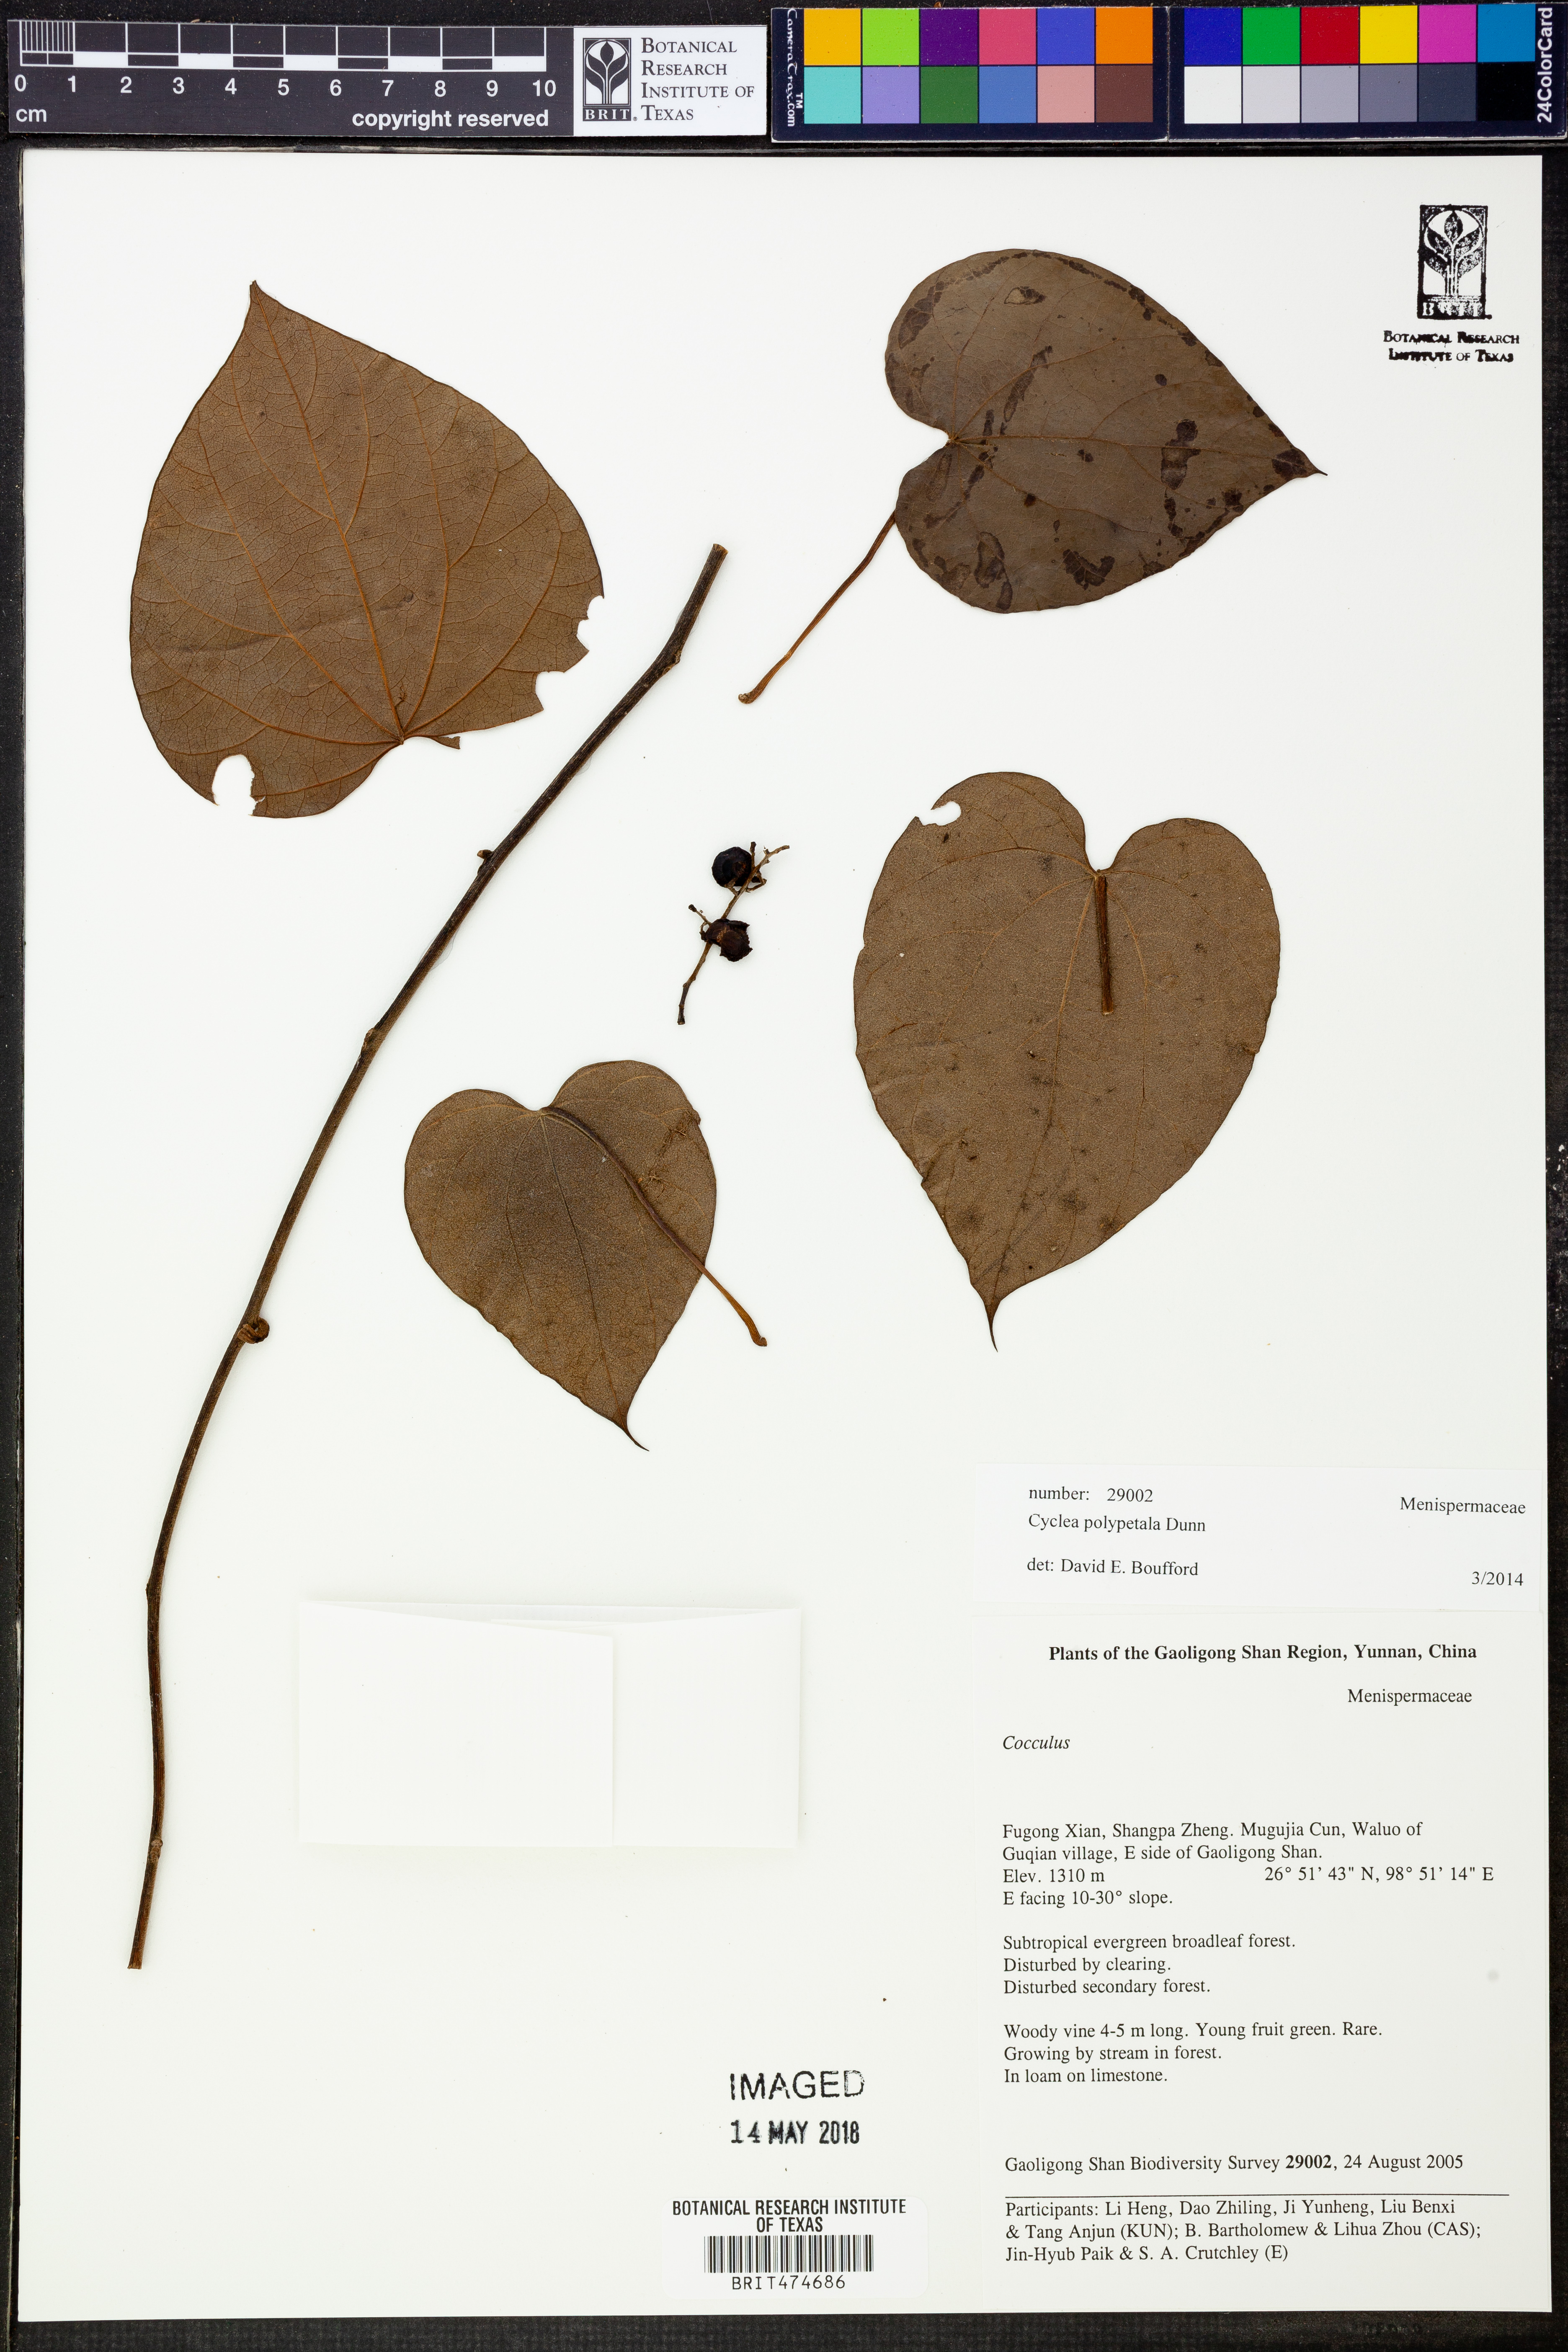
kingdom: Plantae
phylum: Tracheophyta
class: Magnoliopsida
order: Ranunculales
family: Menispermaceae
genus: Cyclea
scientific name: Cyclea polypetala
